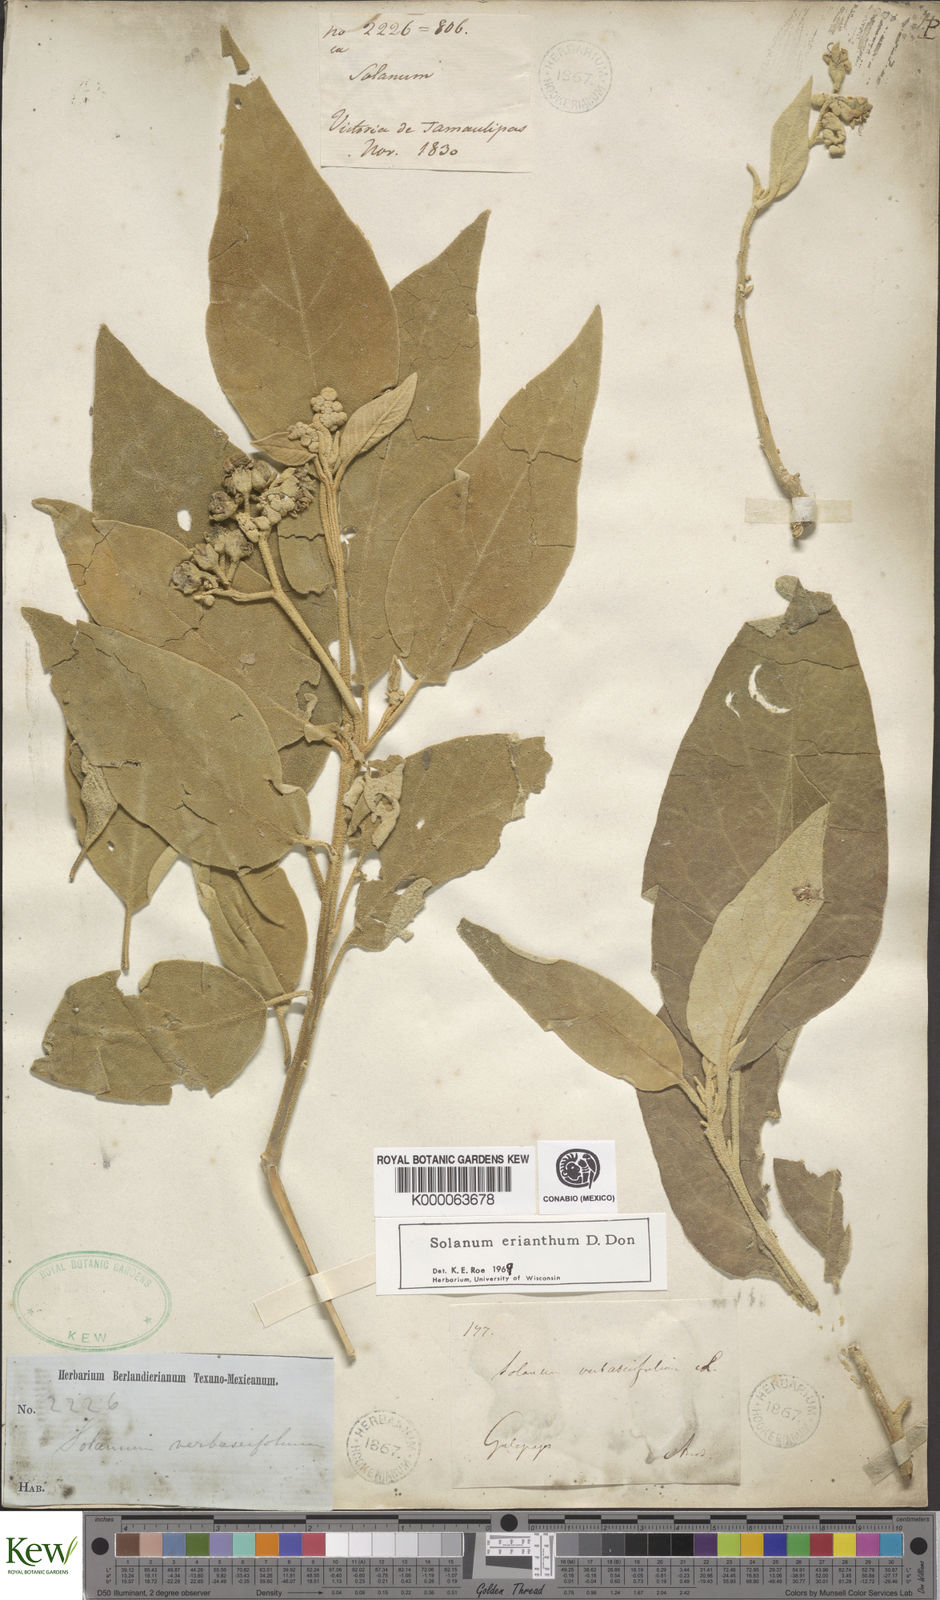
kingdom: Plantae
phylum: Tracheophyta
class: Magnoliopsida
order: Solanales
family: Solanaceae
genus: Solanum
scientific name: Solanum erianthum
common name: Tobacco-tree
